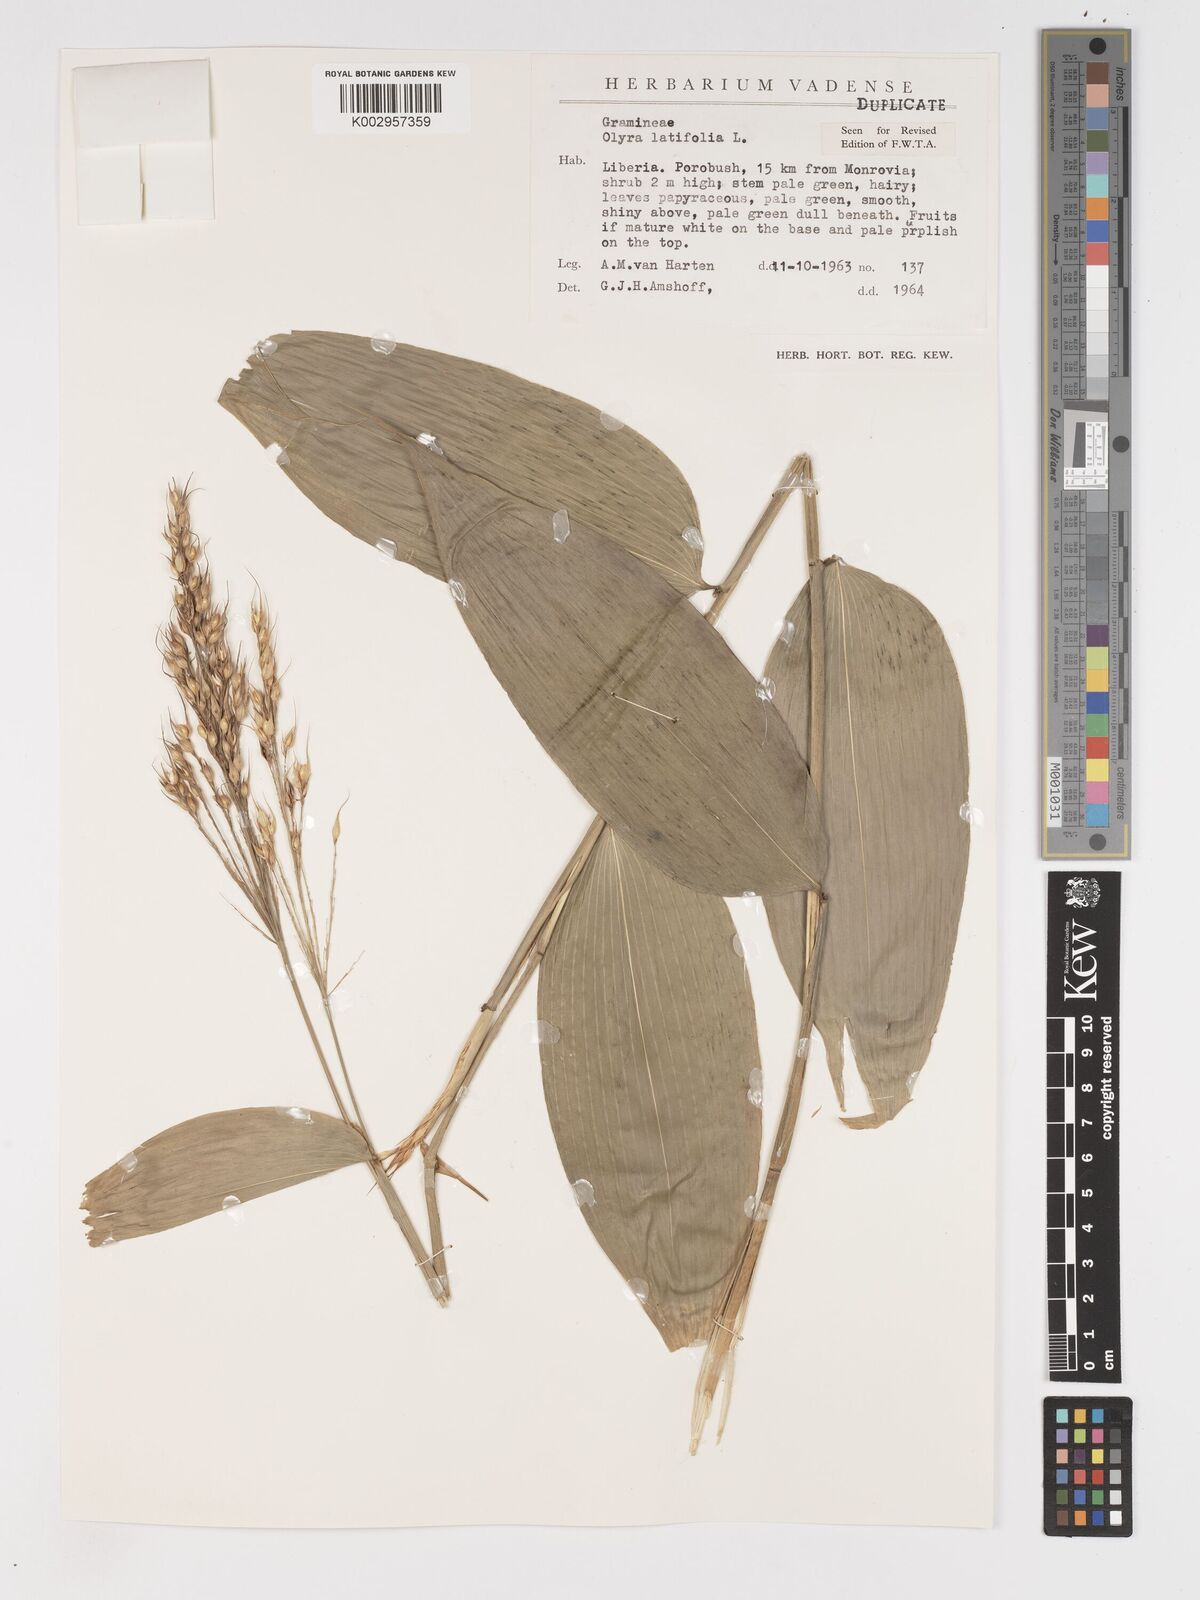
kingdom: Plantae
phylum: Tracheophyta
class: Liliopsida
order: Poales
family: Poaceae
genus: Olyra
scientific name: Olyra latifolia
